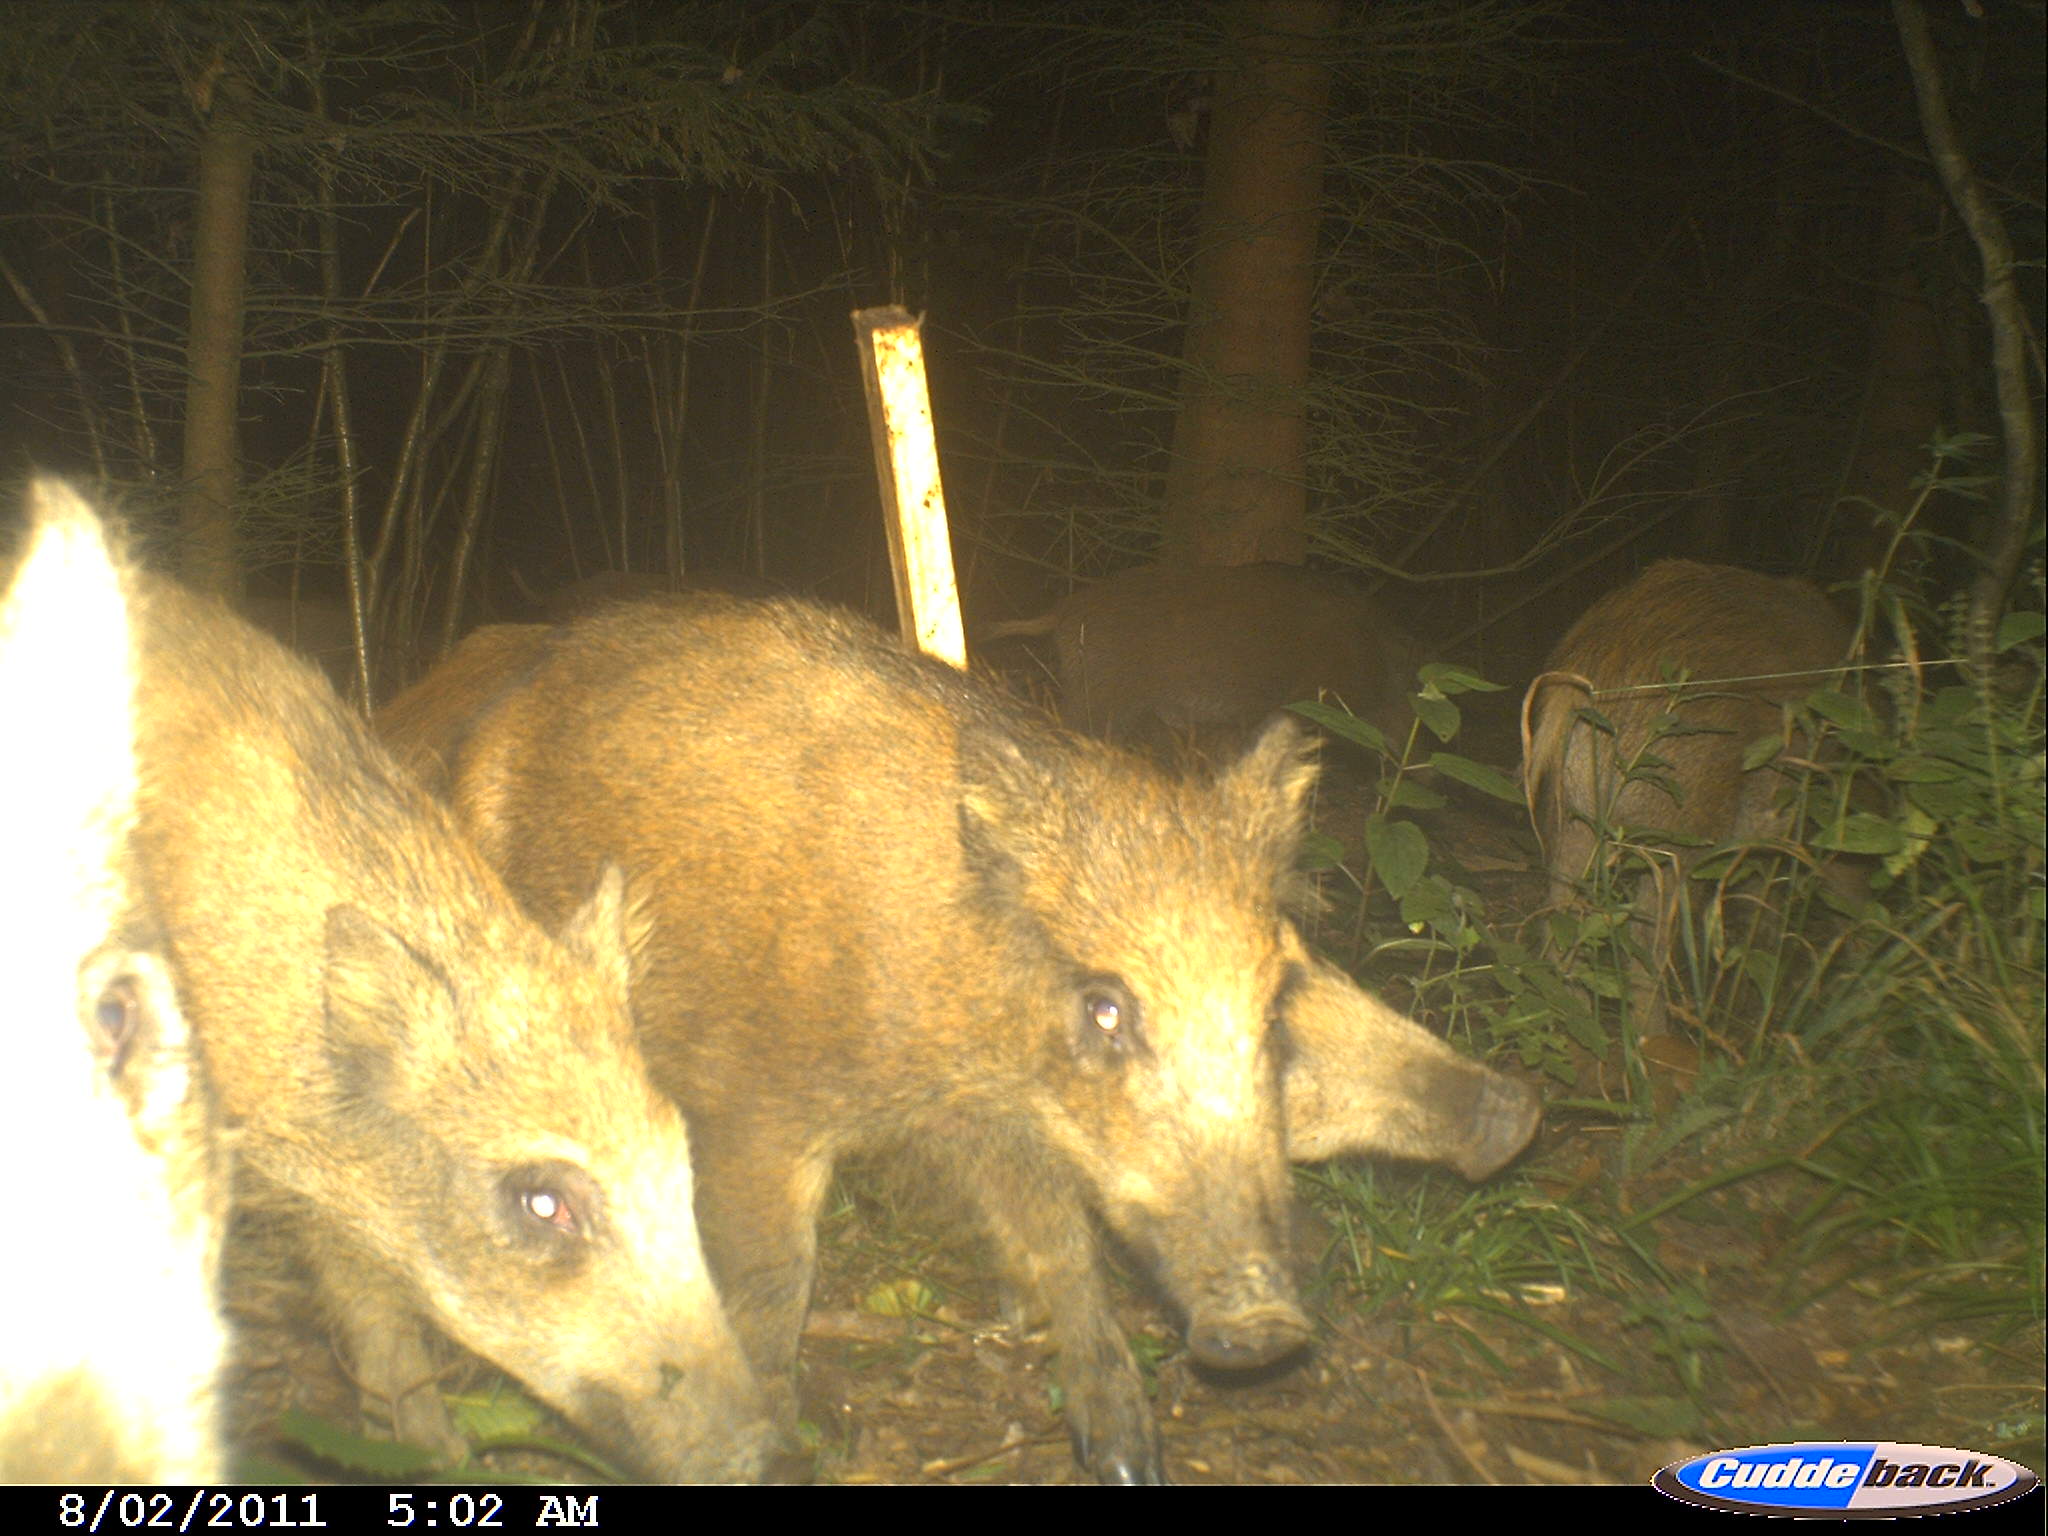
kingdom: Animalia
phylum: Chordata
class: Mammalia
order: Artiodactyla
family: Suidae
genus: Sus
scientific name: Sus scrofa
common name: Wild boar
